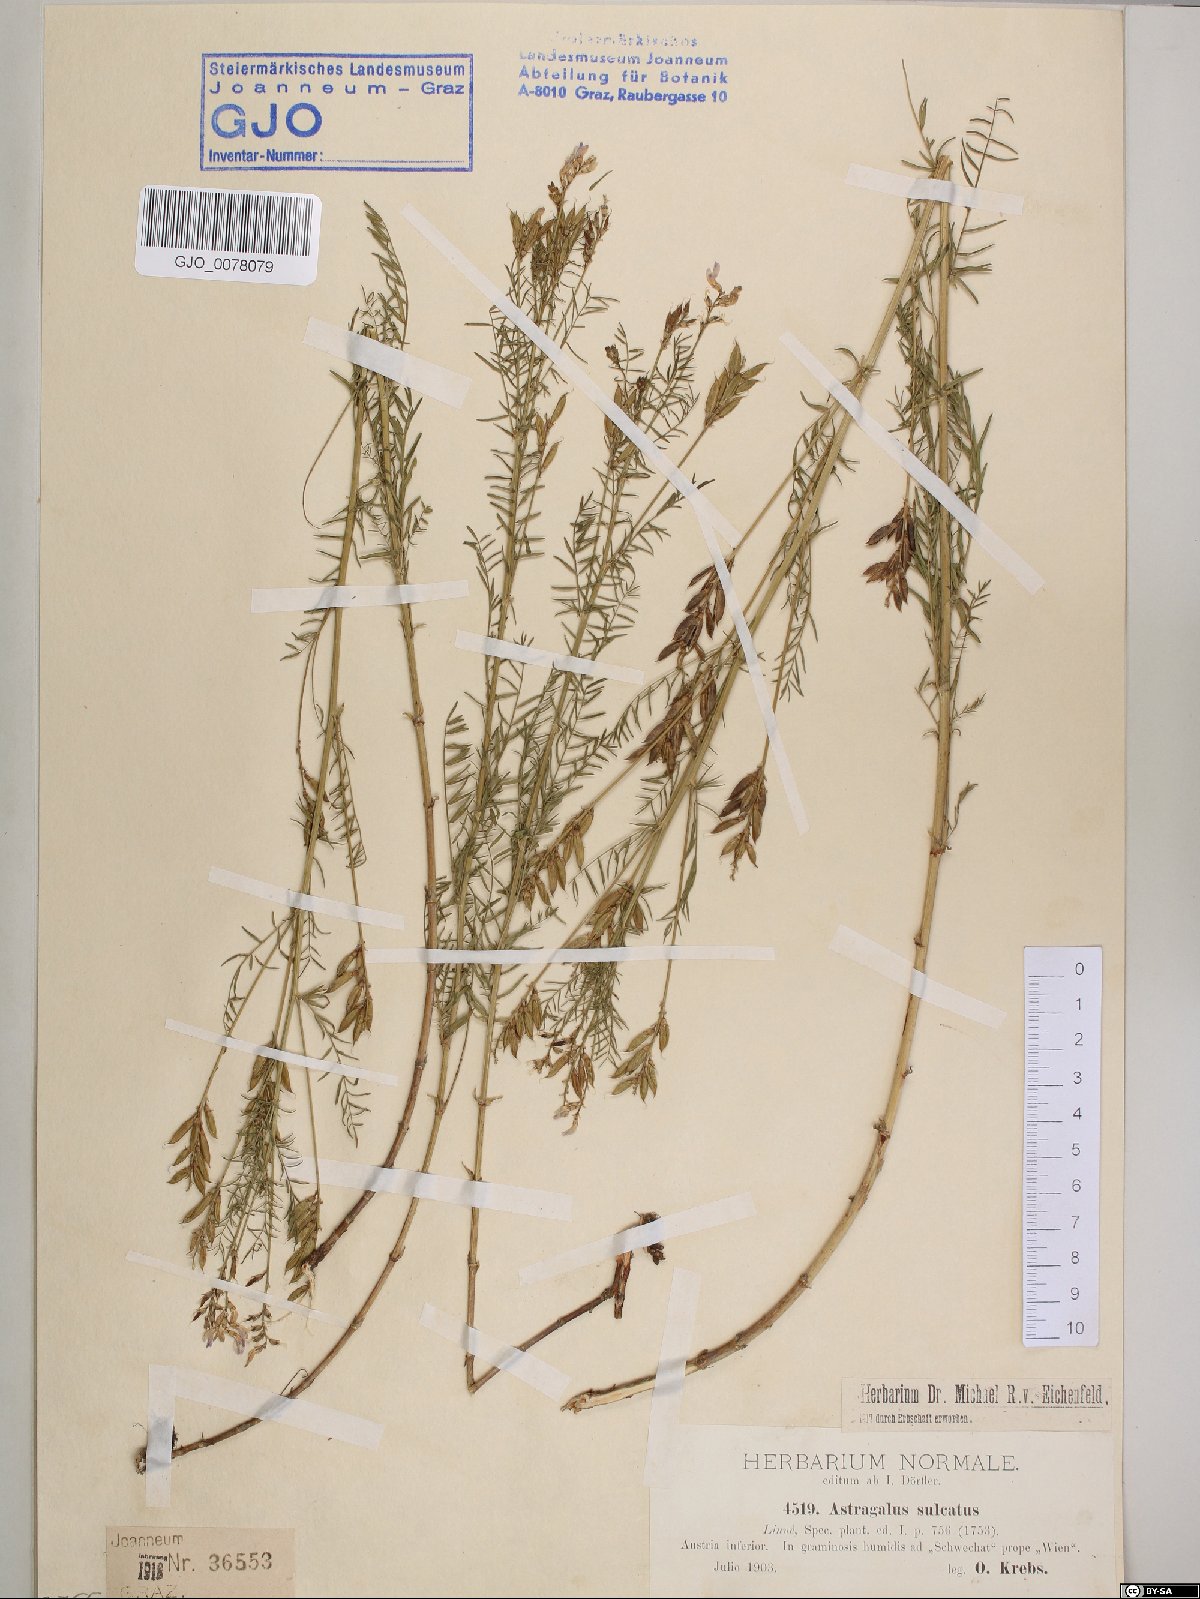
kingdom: Plantae
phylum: Tracheophyta
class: Magnoliopsida
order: Fabales
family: Fabaceae
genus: Astragalus
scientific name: Astragalus sulcatus
